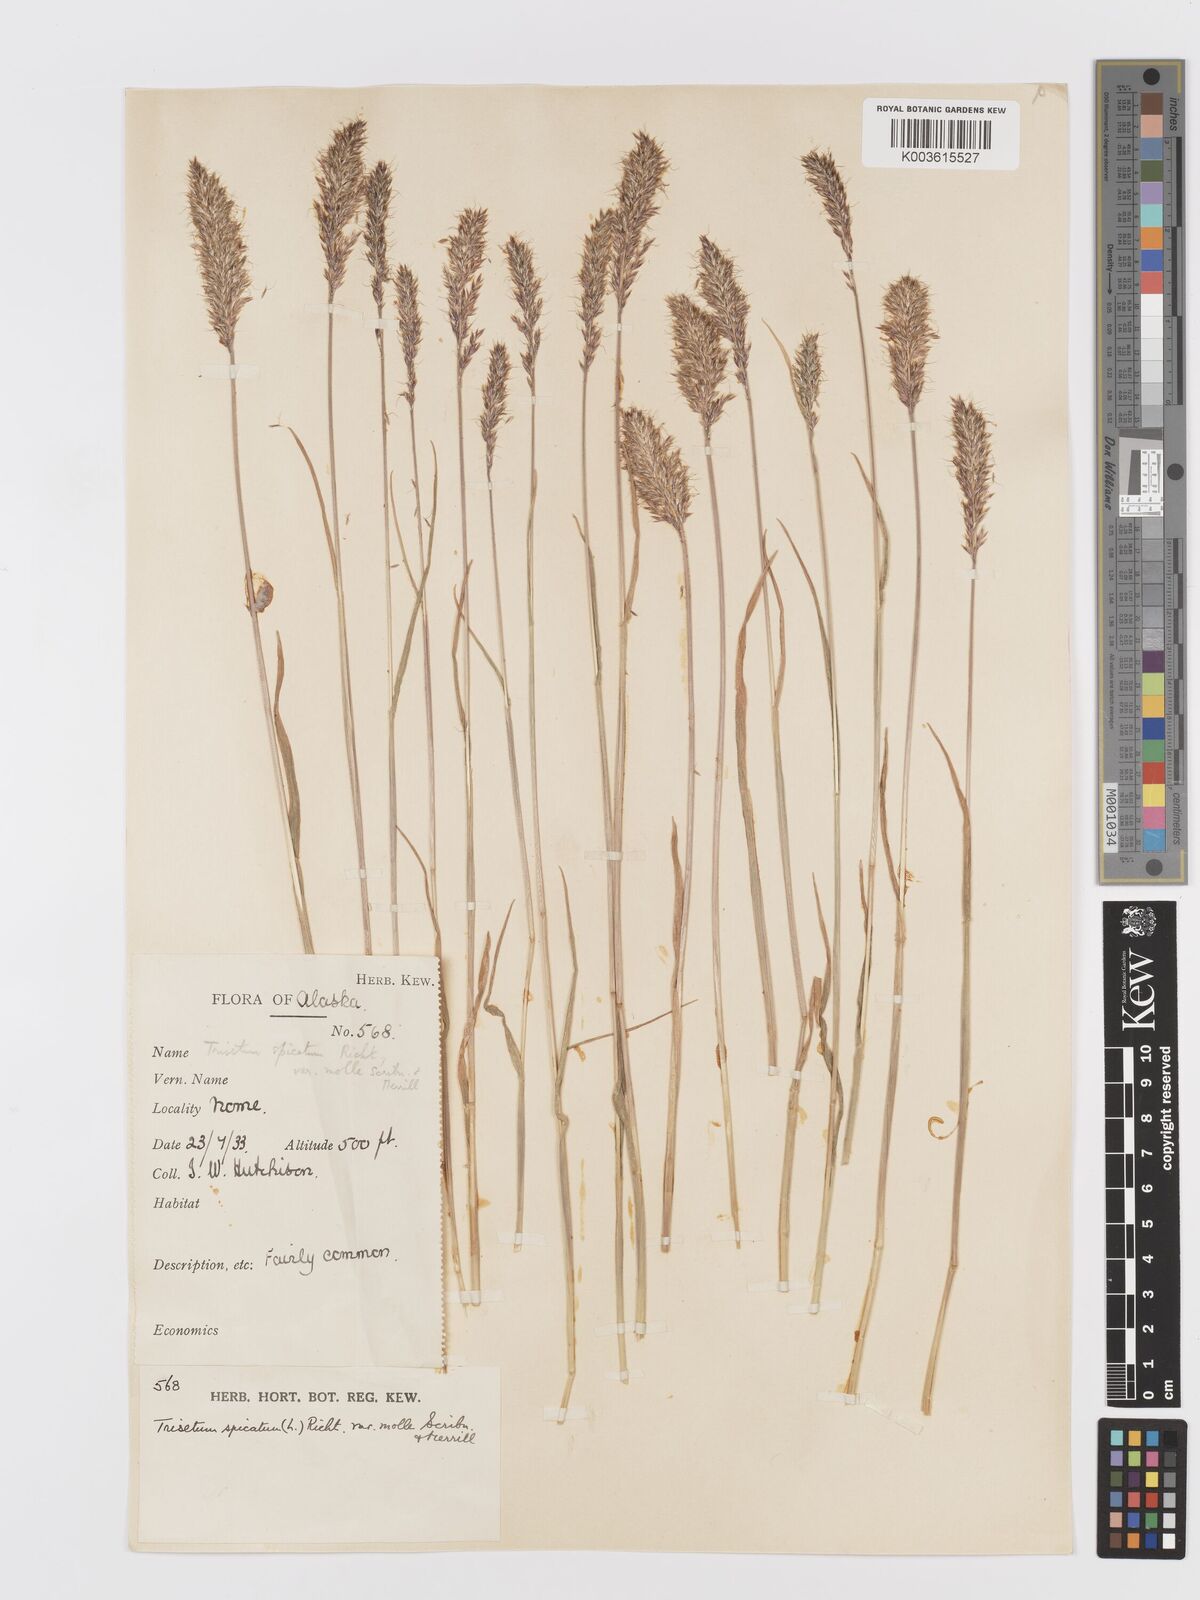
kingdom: Plantae
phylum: Tracheophyta
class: Liliopsida
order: Poales
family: Poaceae
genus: Koeleria
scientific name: Koeleria spicata
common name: Mountain trisetum
